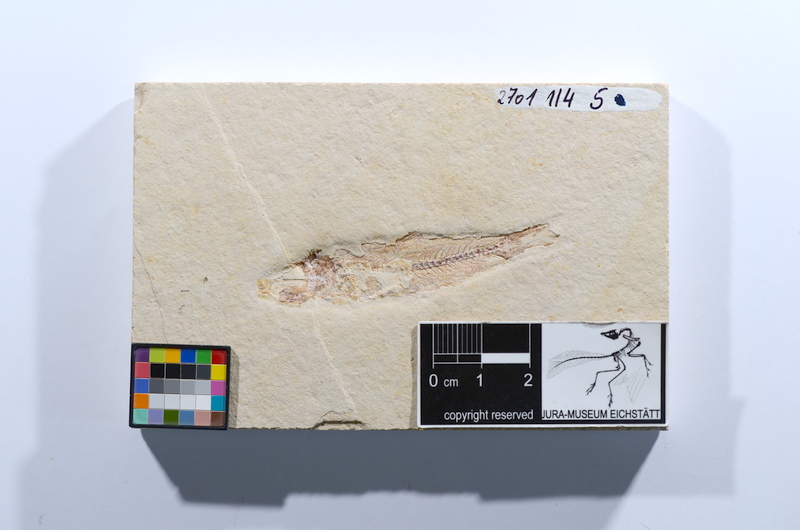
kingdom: Animalia
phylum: Chordata
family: Ascalaboidae
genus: Ascalabos
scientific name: Ascalabos voithii
